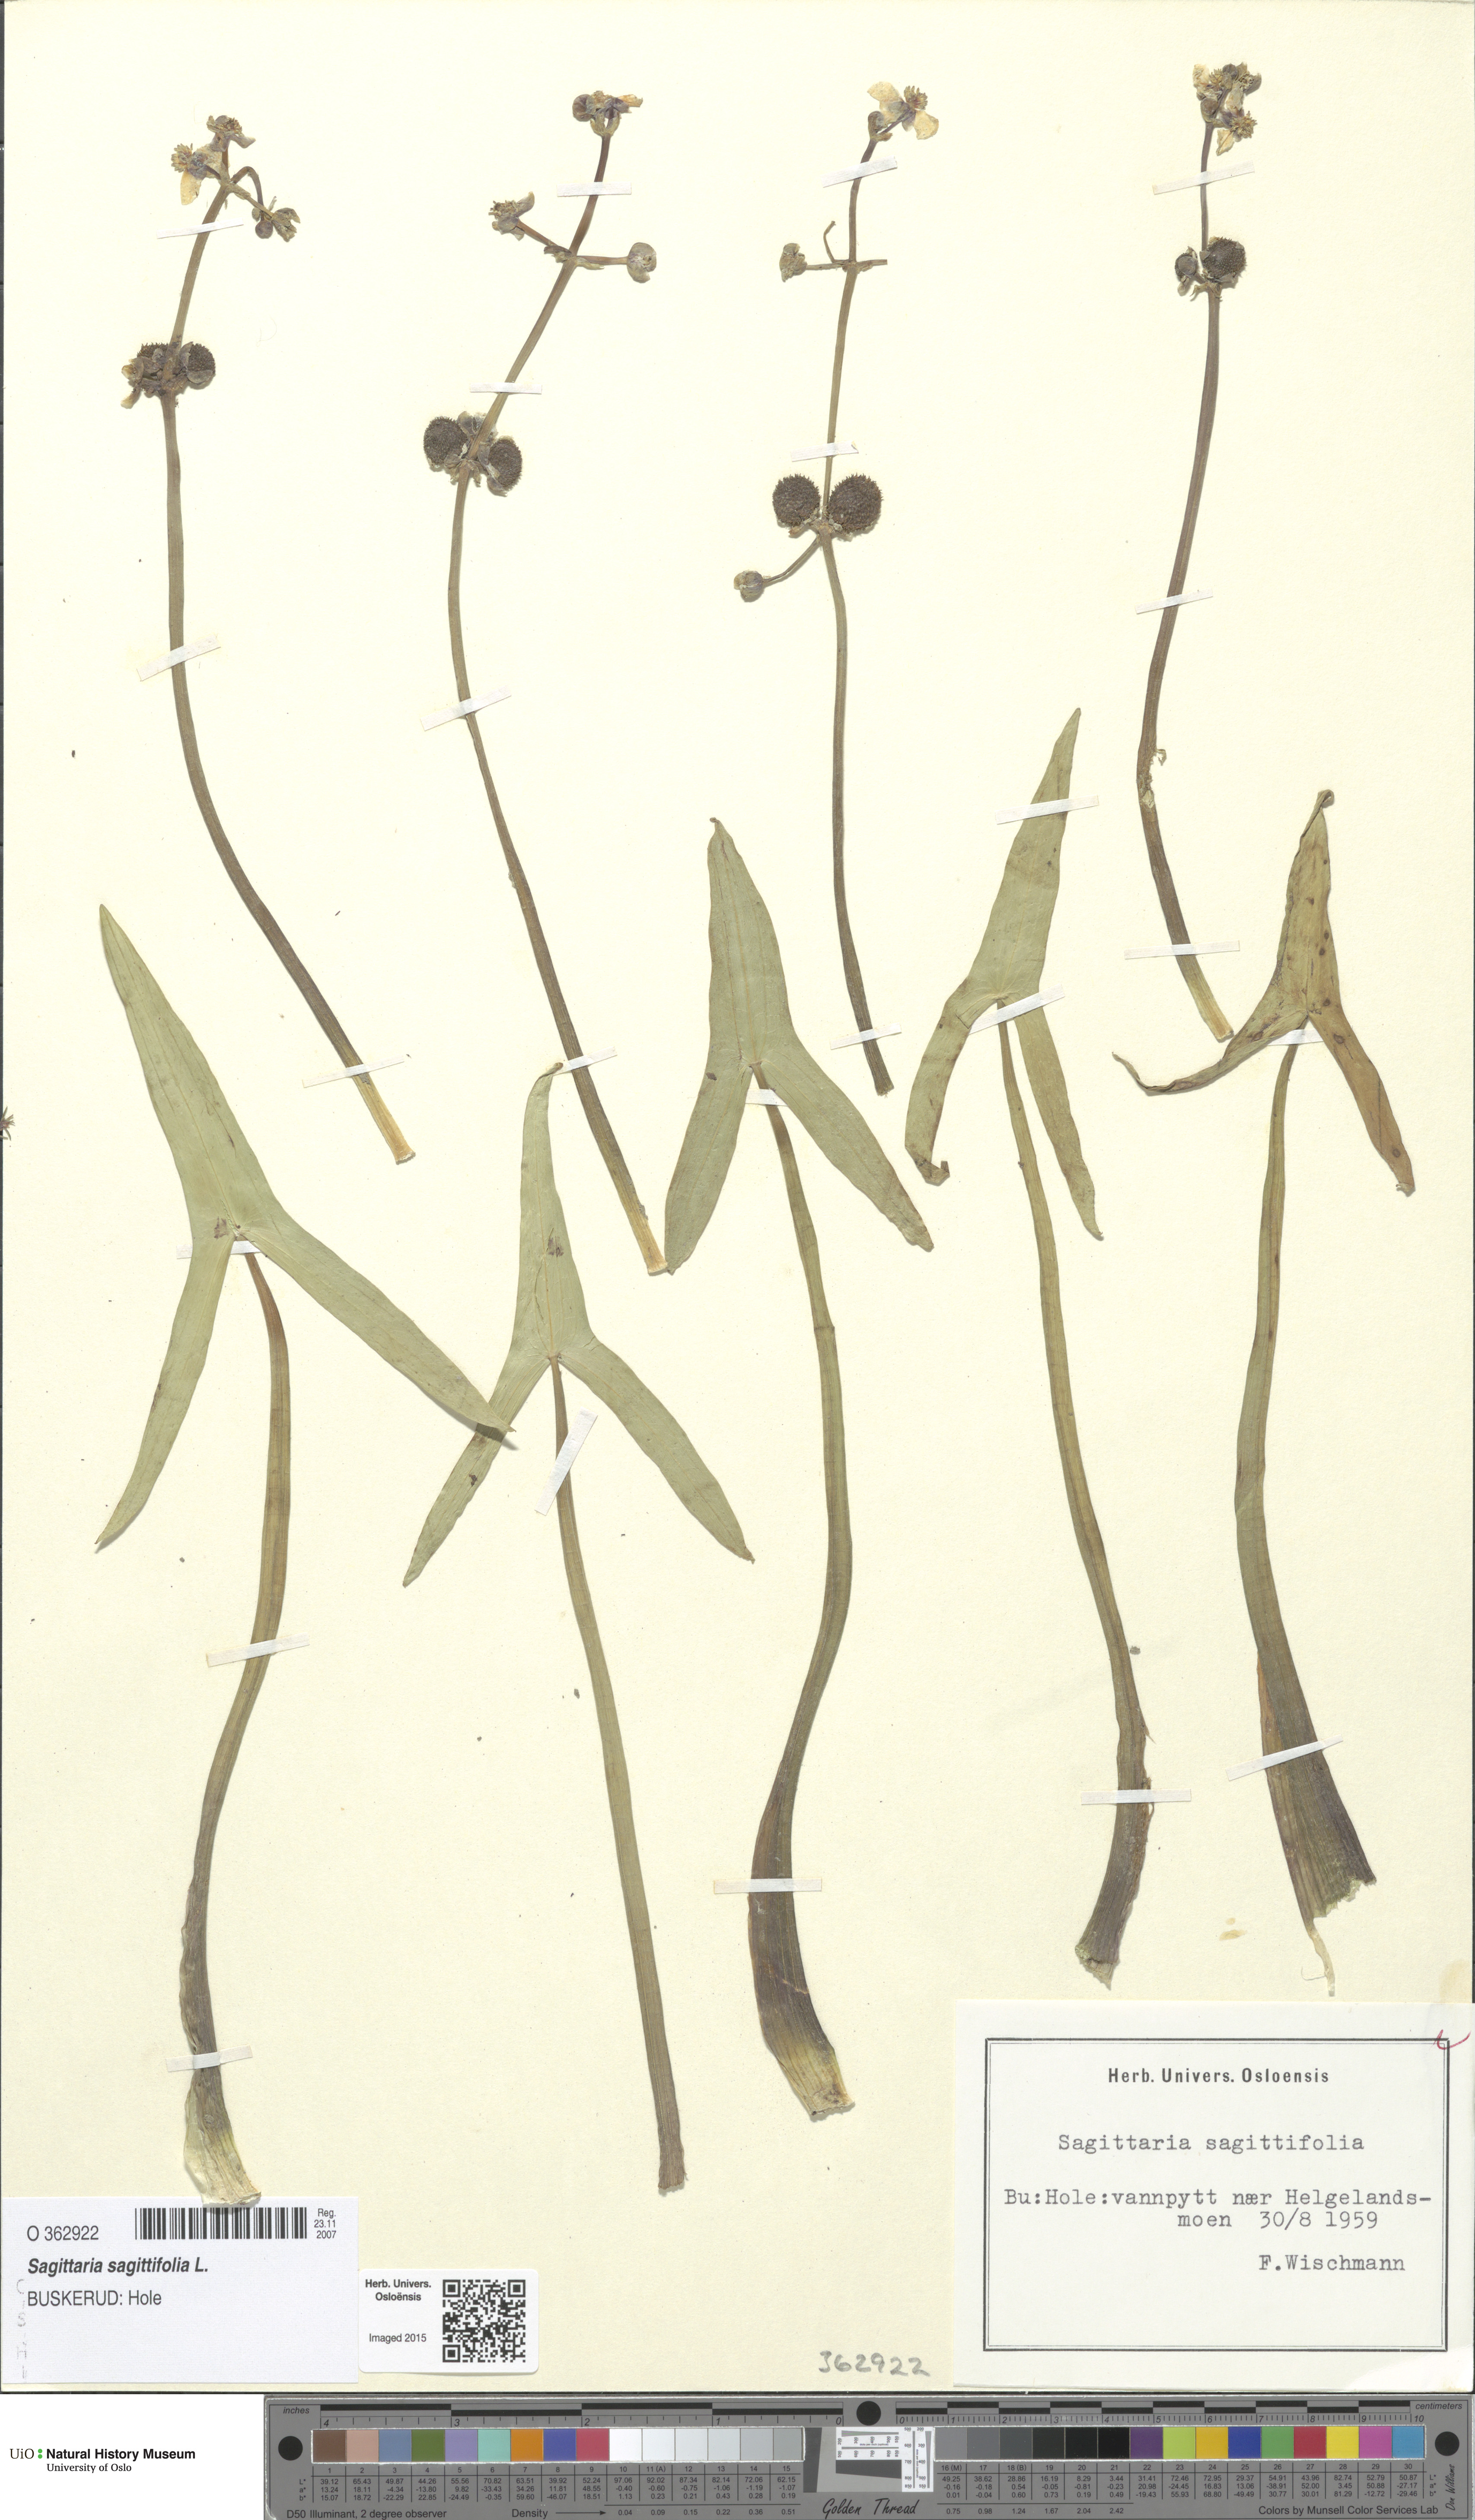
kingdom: Plantae
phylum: Tracheophyta
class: Liliopsida
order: Alismatales
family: Alismataceae
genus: Sagittaria
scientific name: Sagittaria sagittifolia
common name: Arrowhead
